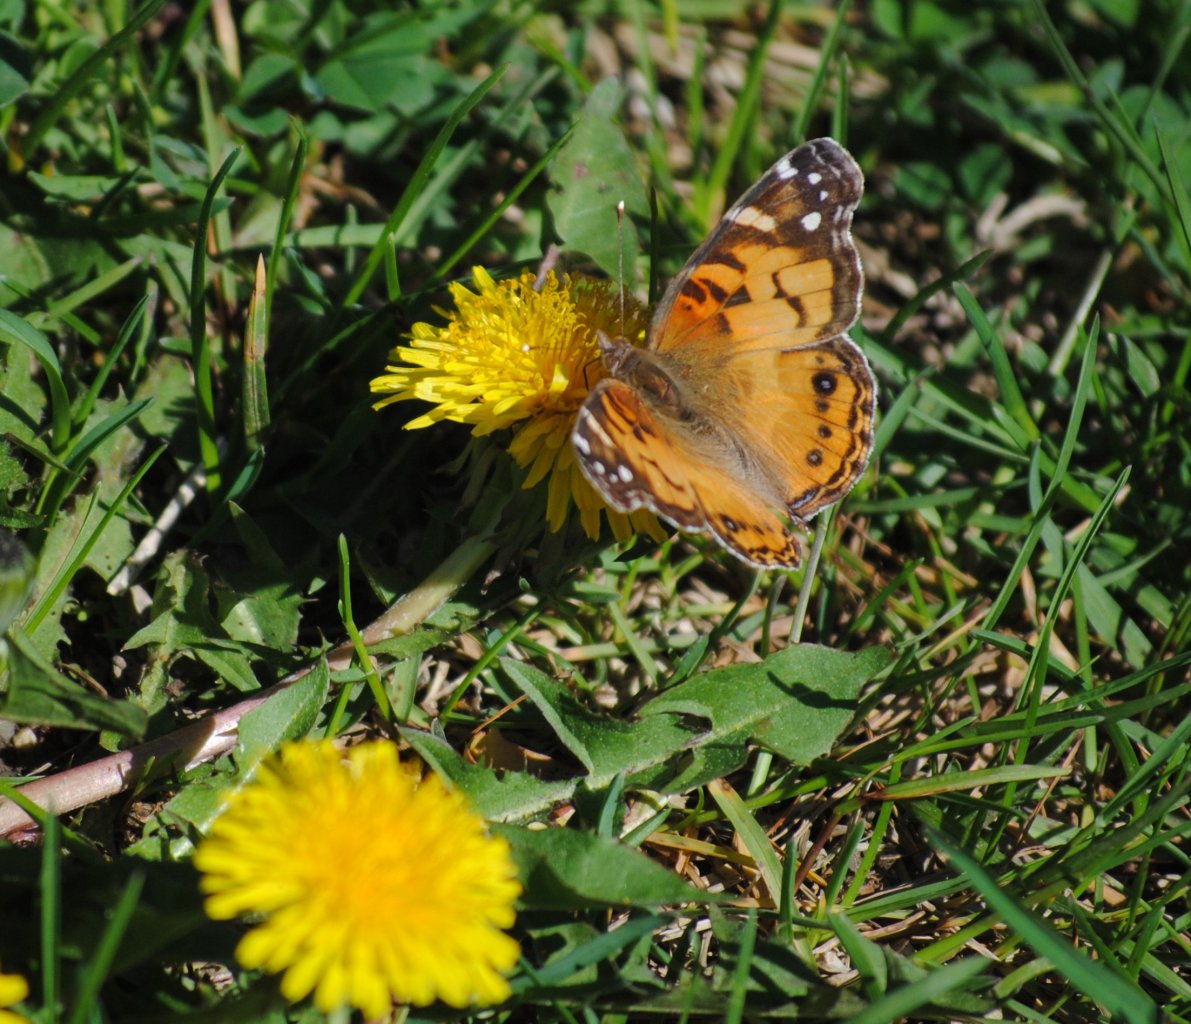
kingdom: Animalia
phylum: Arthropoda
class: Insecta
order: Lepidoptera
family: Nymphalidae
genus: Vanessa
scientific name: Vanessa virginiensis
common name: American Lady
